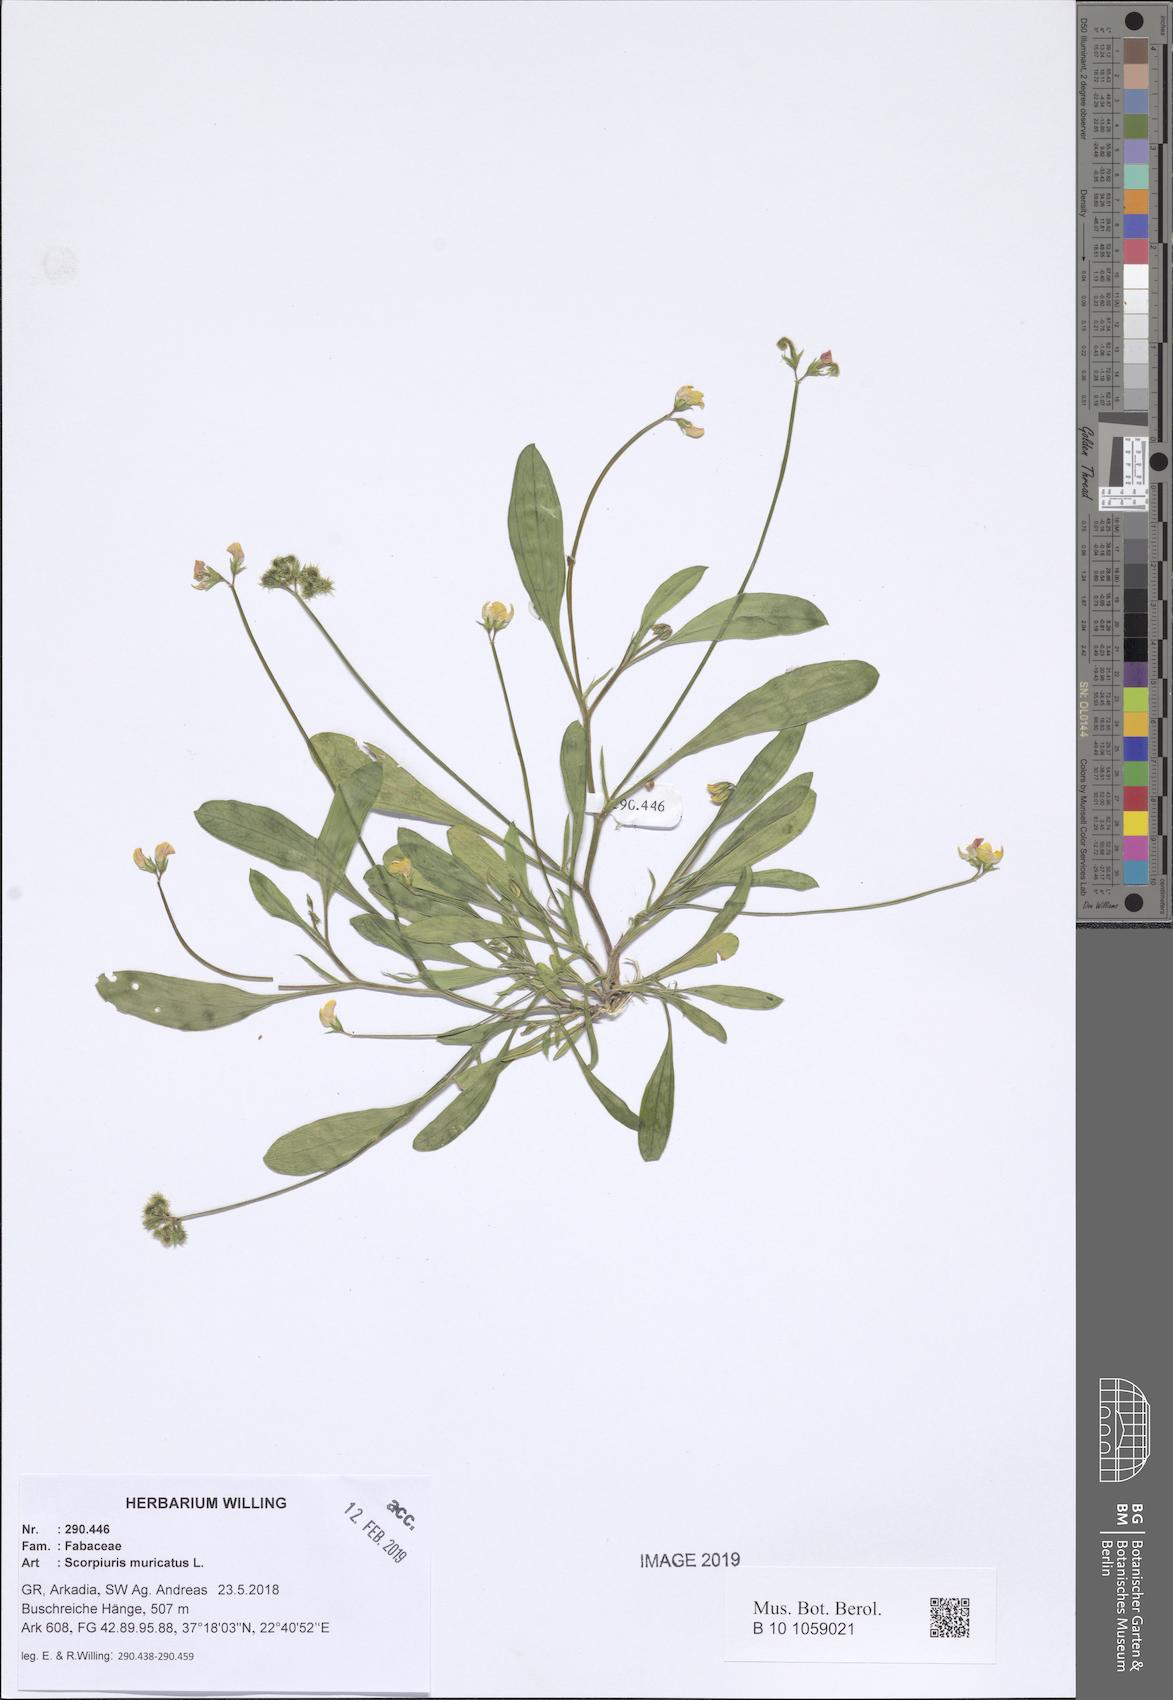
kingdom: Plantae
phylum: Tracheophyta
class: Magnoliopsida
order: Fabales
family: Fabaceae
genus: Scorpiurus
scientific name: Scorpiurus muricatus
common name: Caterpillar-plant
